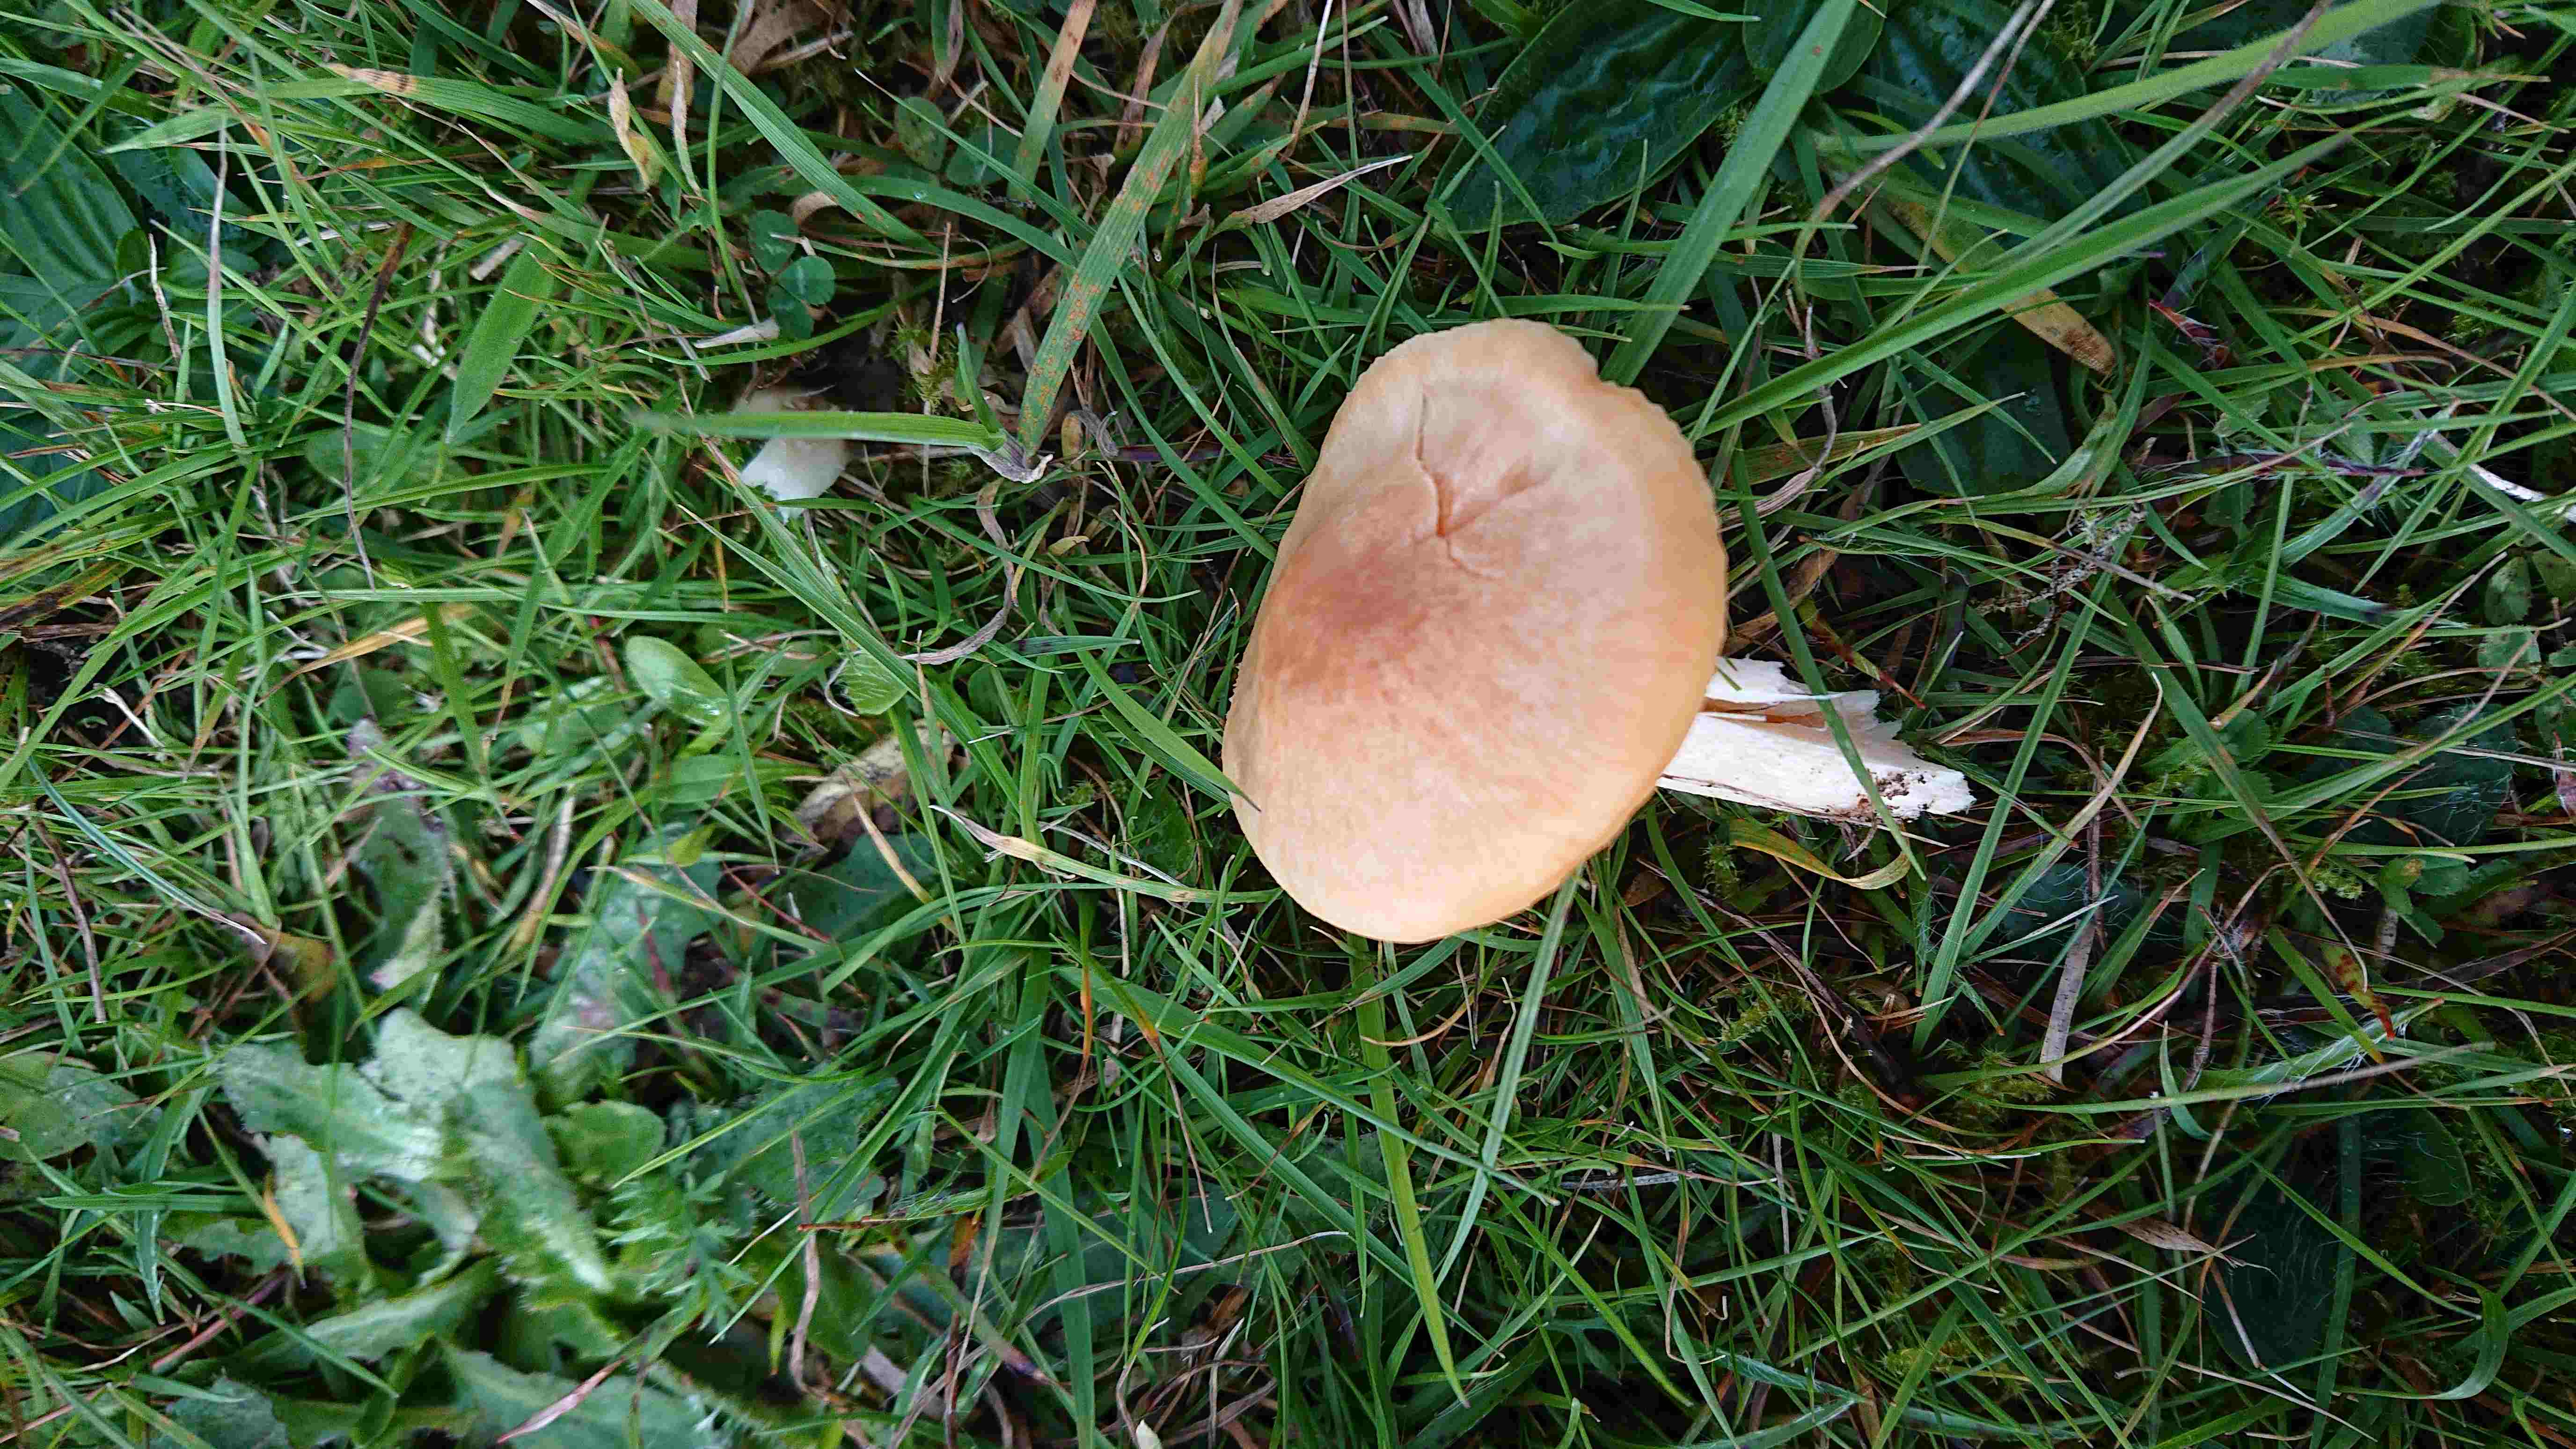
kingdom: Fungi
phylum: Basidiomycota
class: Agaricomycetes
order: Agaricales
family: Hygrophoraceae
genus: Cuphophyllus
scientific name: Cuphophyllus pratensis
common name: eng-vokshat
